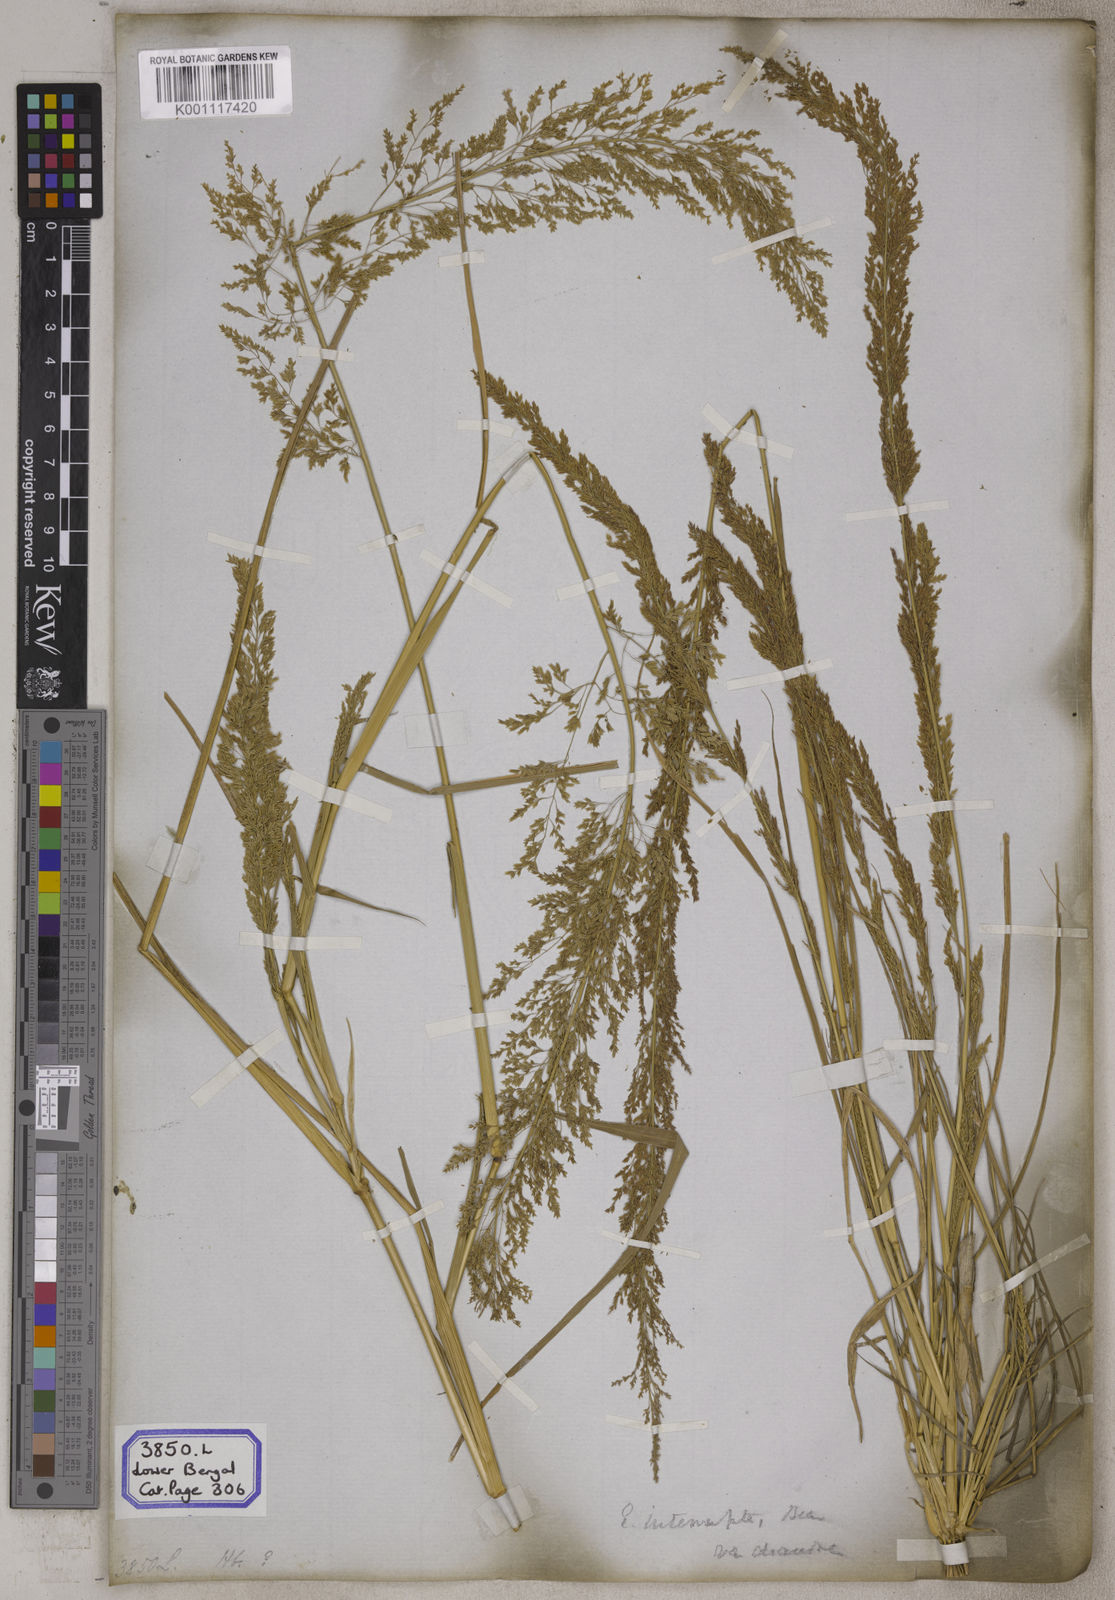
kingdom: Plantae
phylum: Tracheophyta
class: Liliopsida
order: Poales
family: Poaceae
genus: Eragrostis
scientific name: Eragrostis
